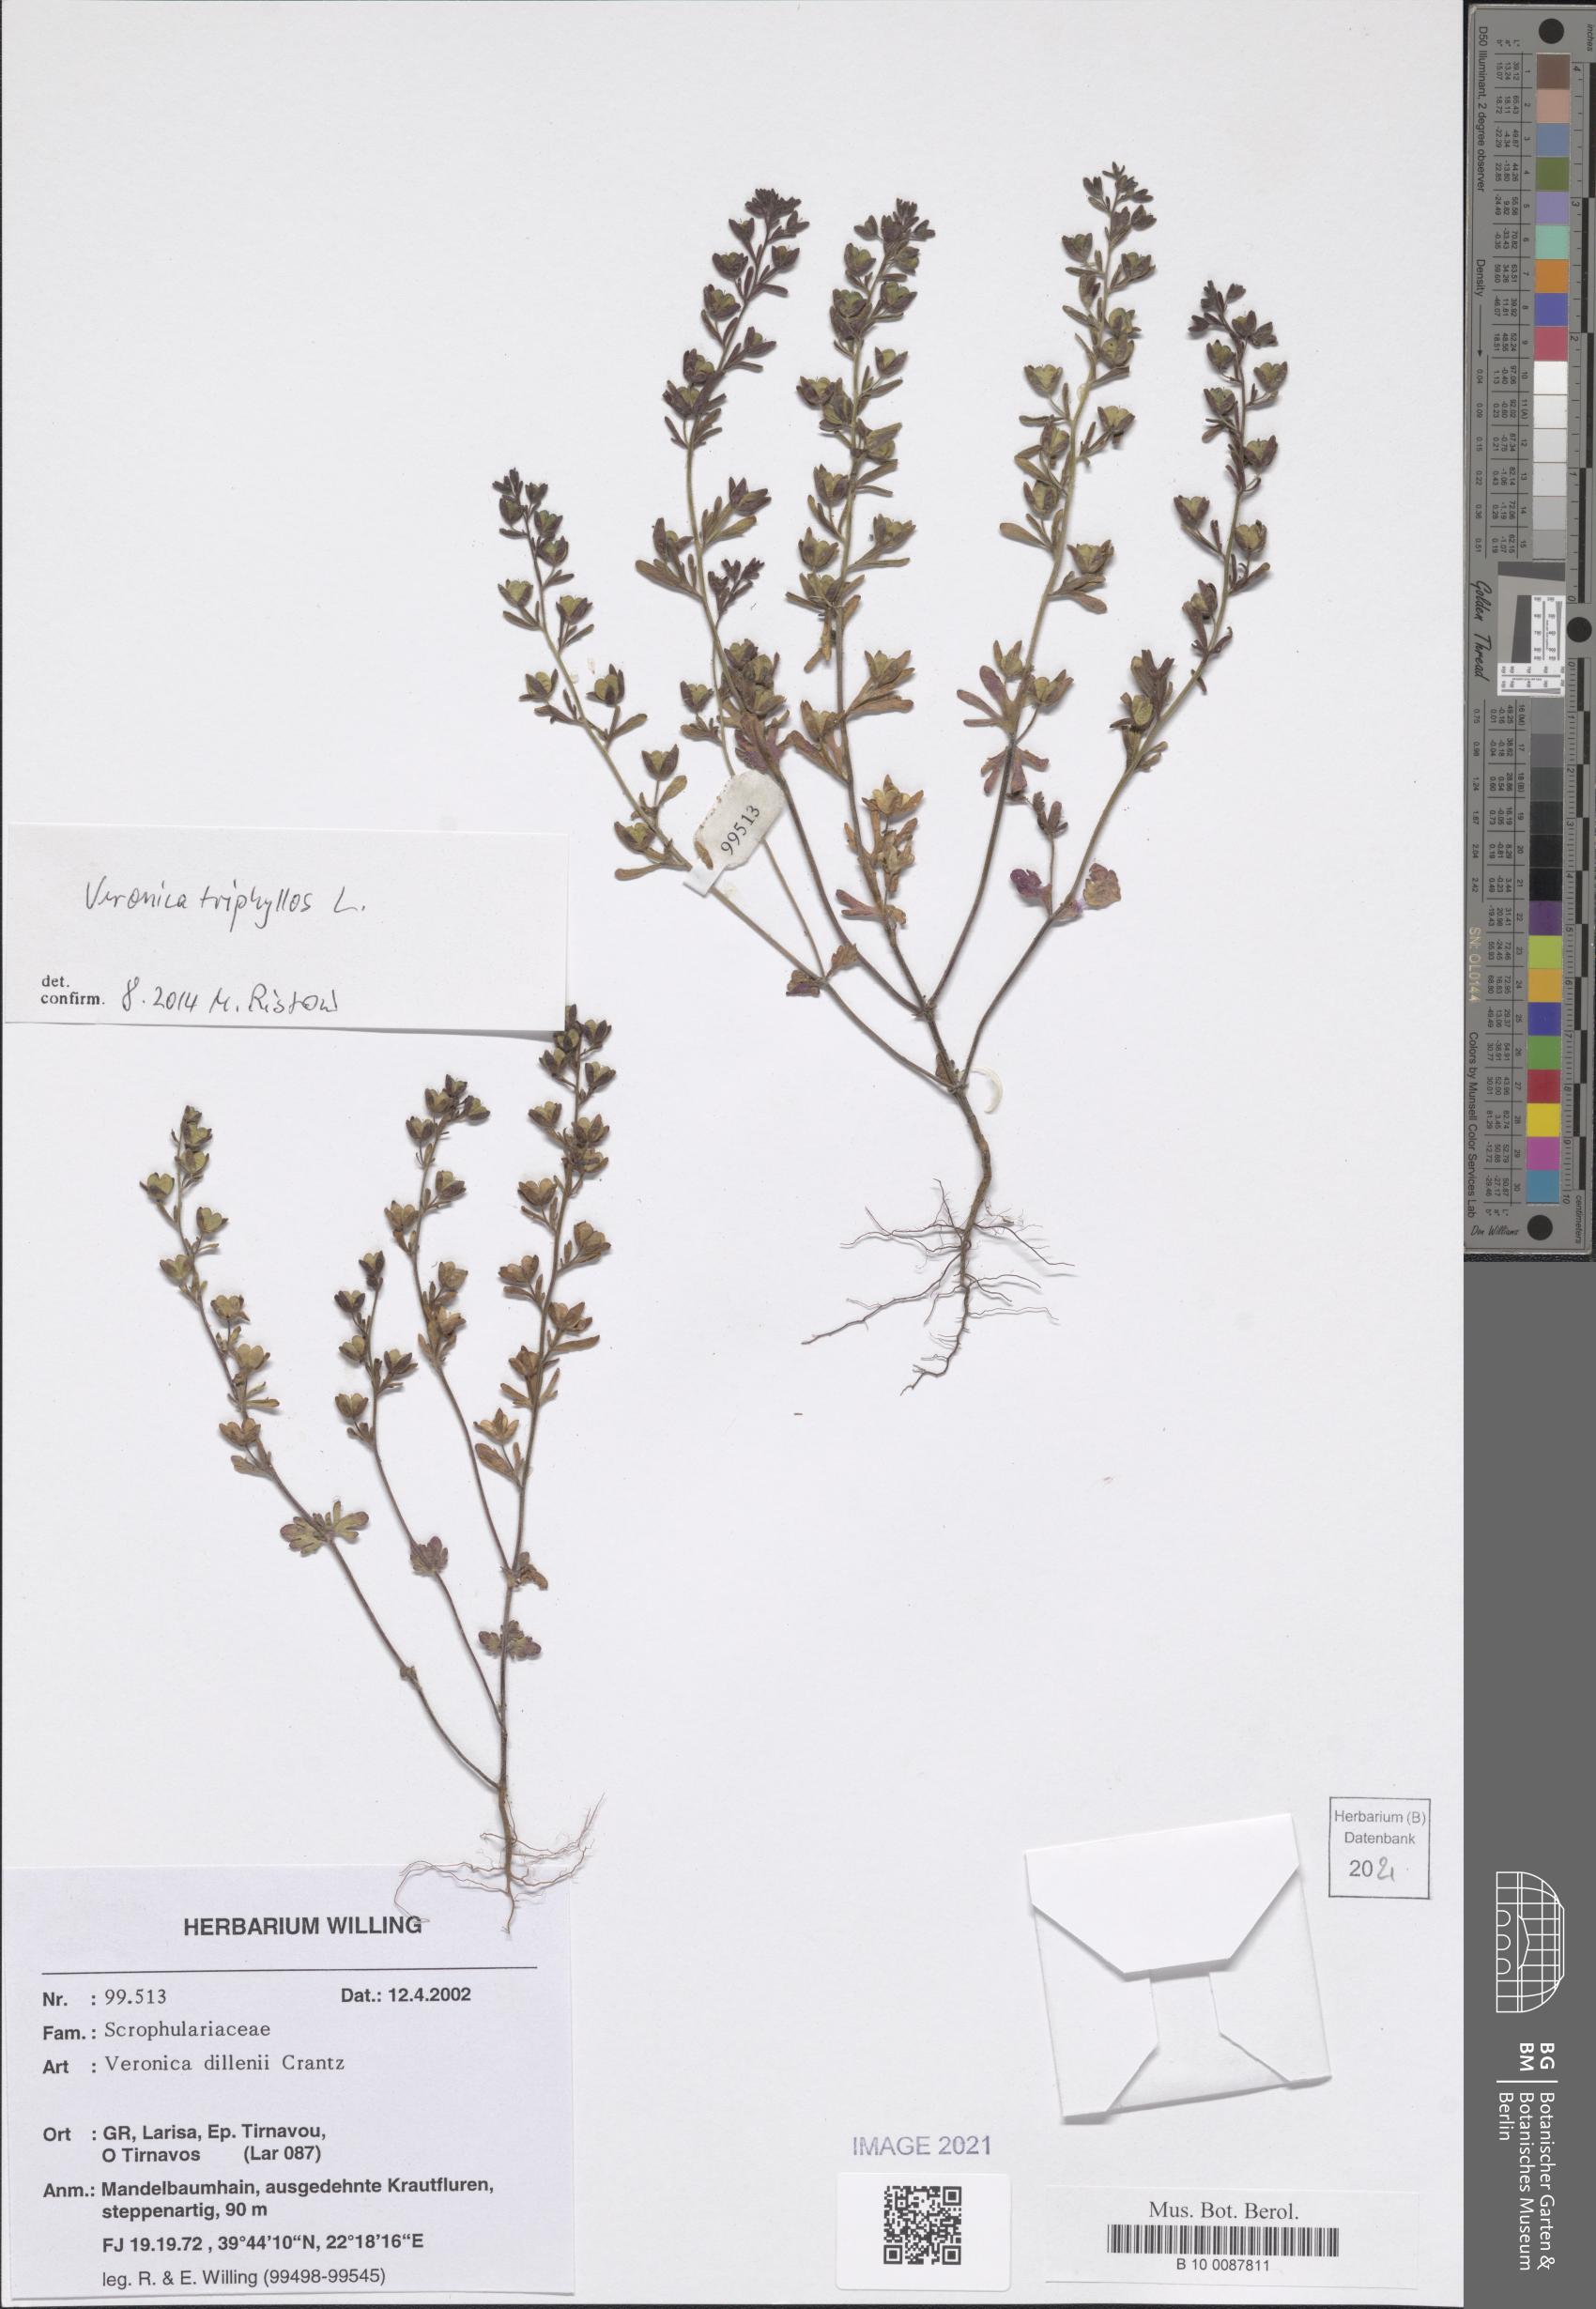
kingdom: Plantae
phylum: Tracheophyta
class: Magnoliopsida
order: Lamiales
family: Plantaginaceae
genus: Veronica
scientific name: Veronica triphyllos
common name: Fingered speedwell
